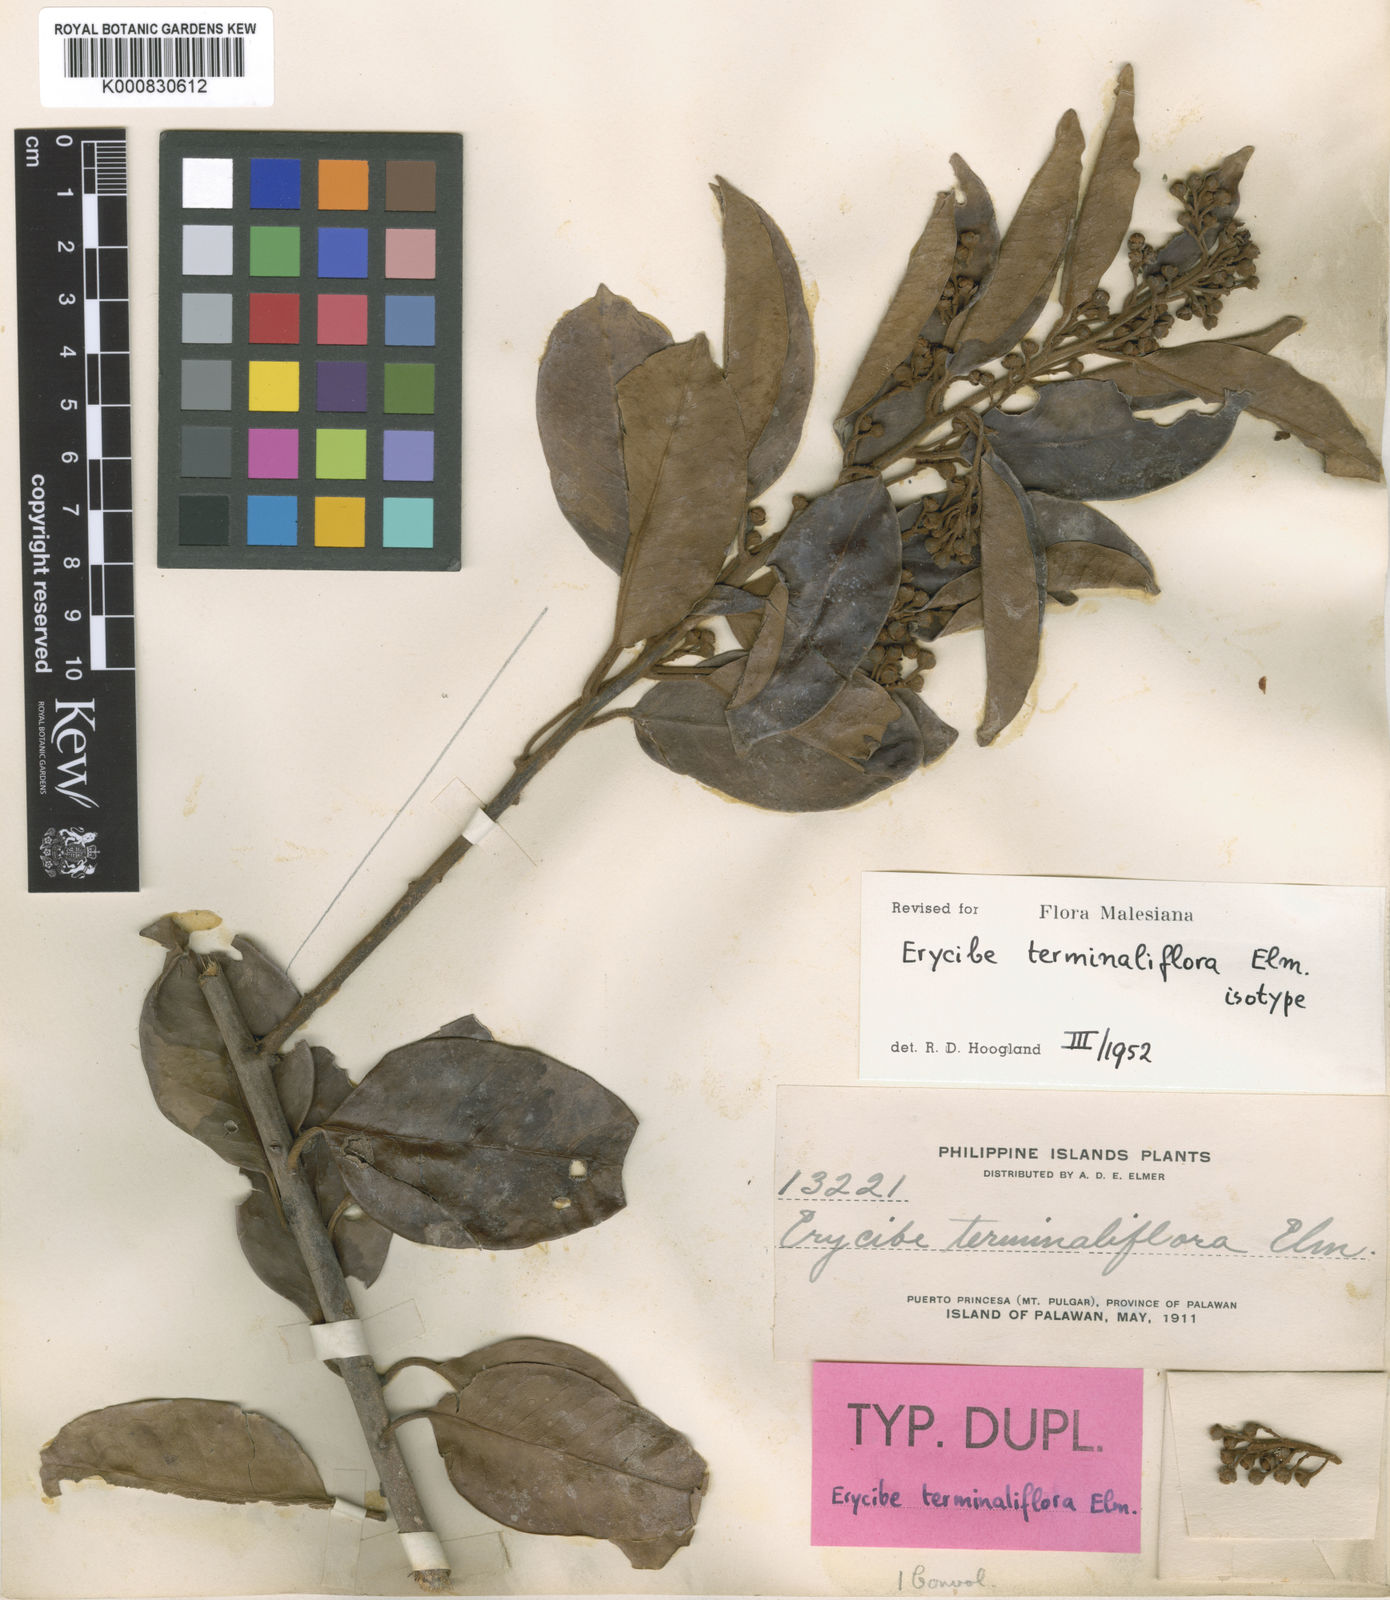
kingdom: Plantae
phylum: Tracheophyta
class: Magnoliopsida
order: Solanales
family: Convolvulaceae
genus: Erycibe
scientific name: Erycibe terminaliflora
